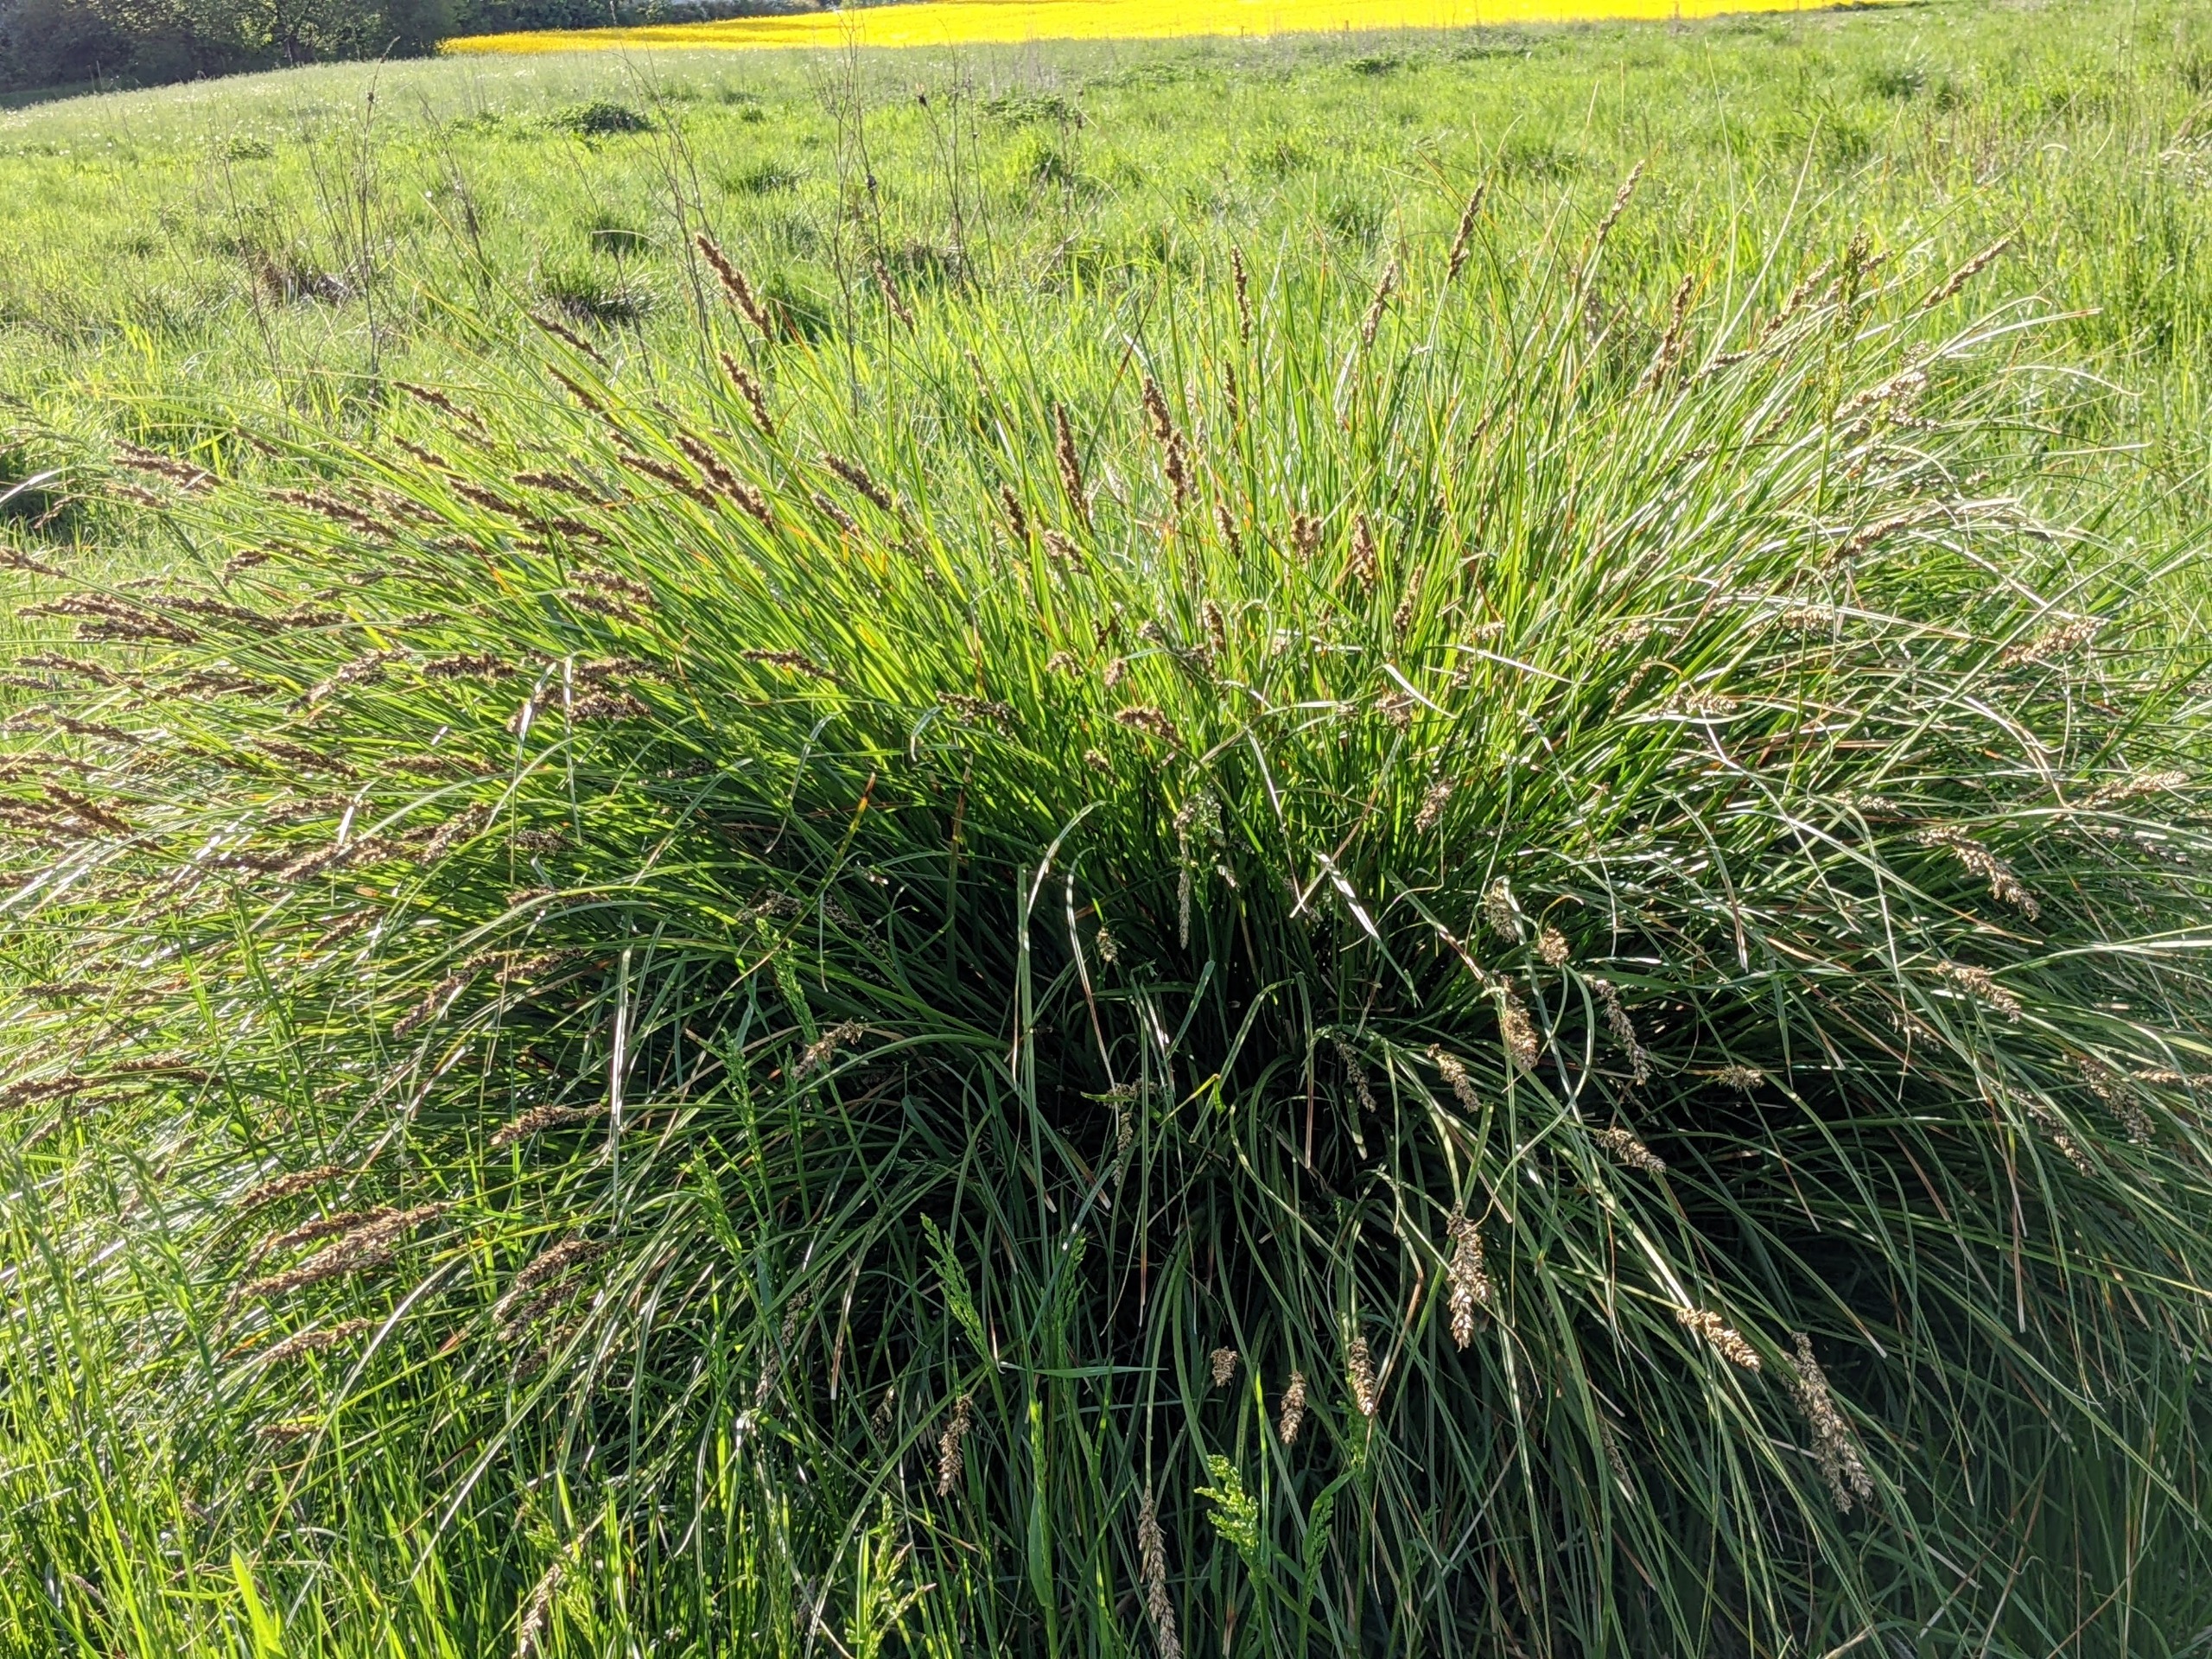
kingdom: Plantae
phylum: Tracheophyta
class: Liliopsida
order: Poales
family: Cyperaceae
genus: Carex
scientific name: Carex paniculata
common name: Top-star
